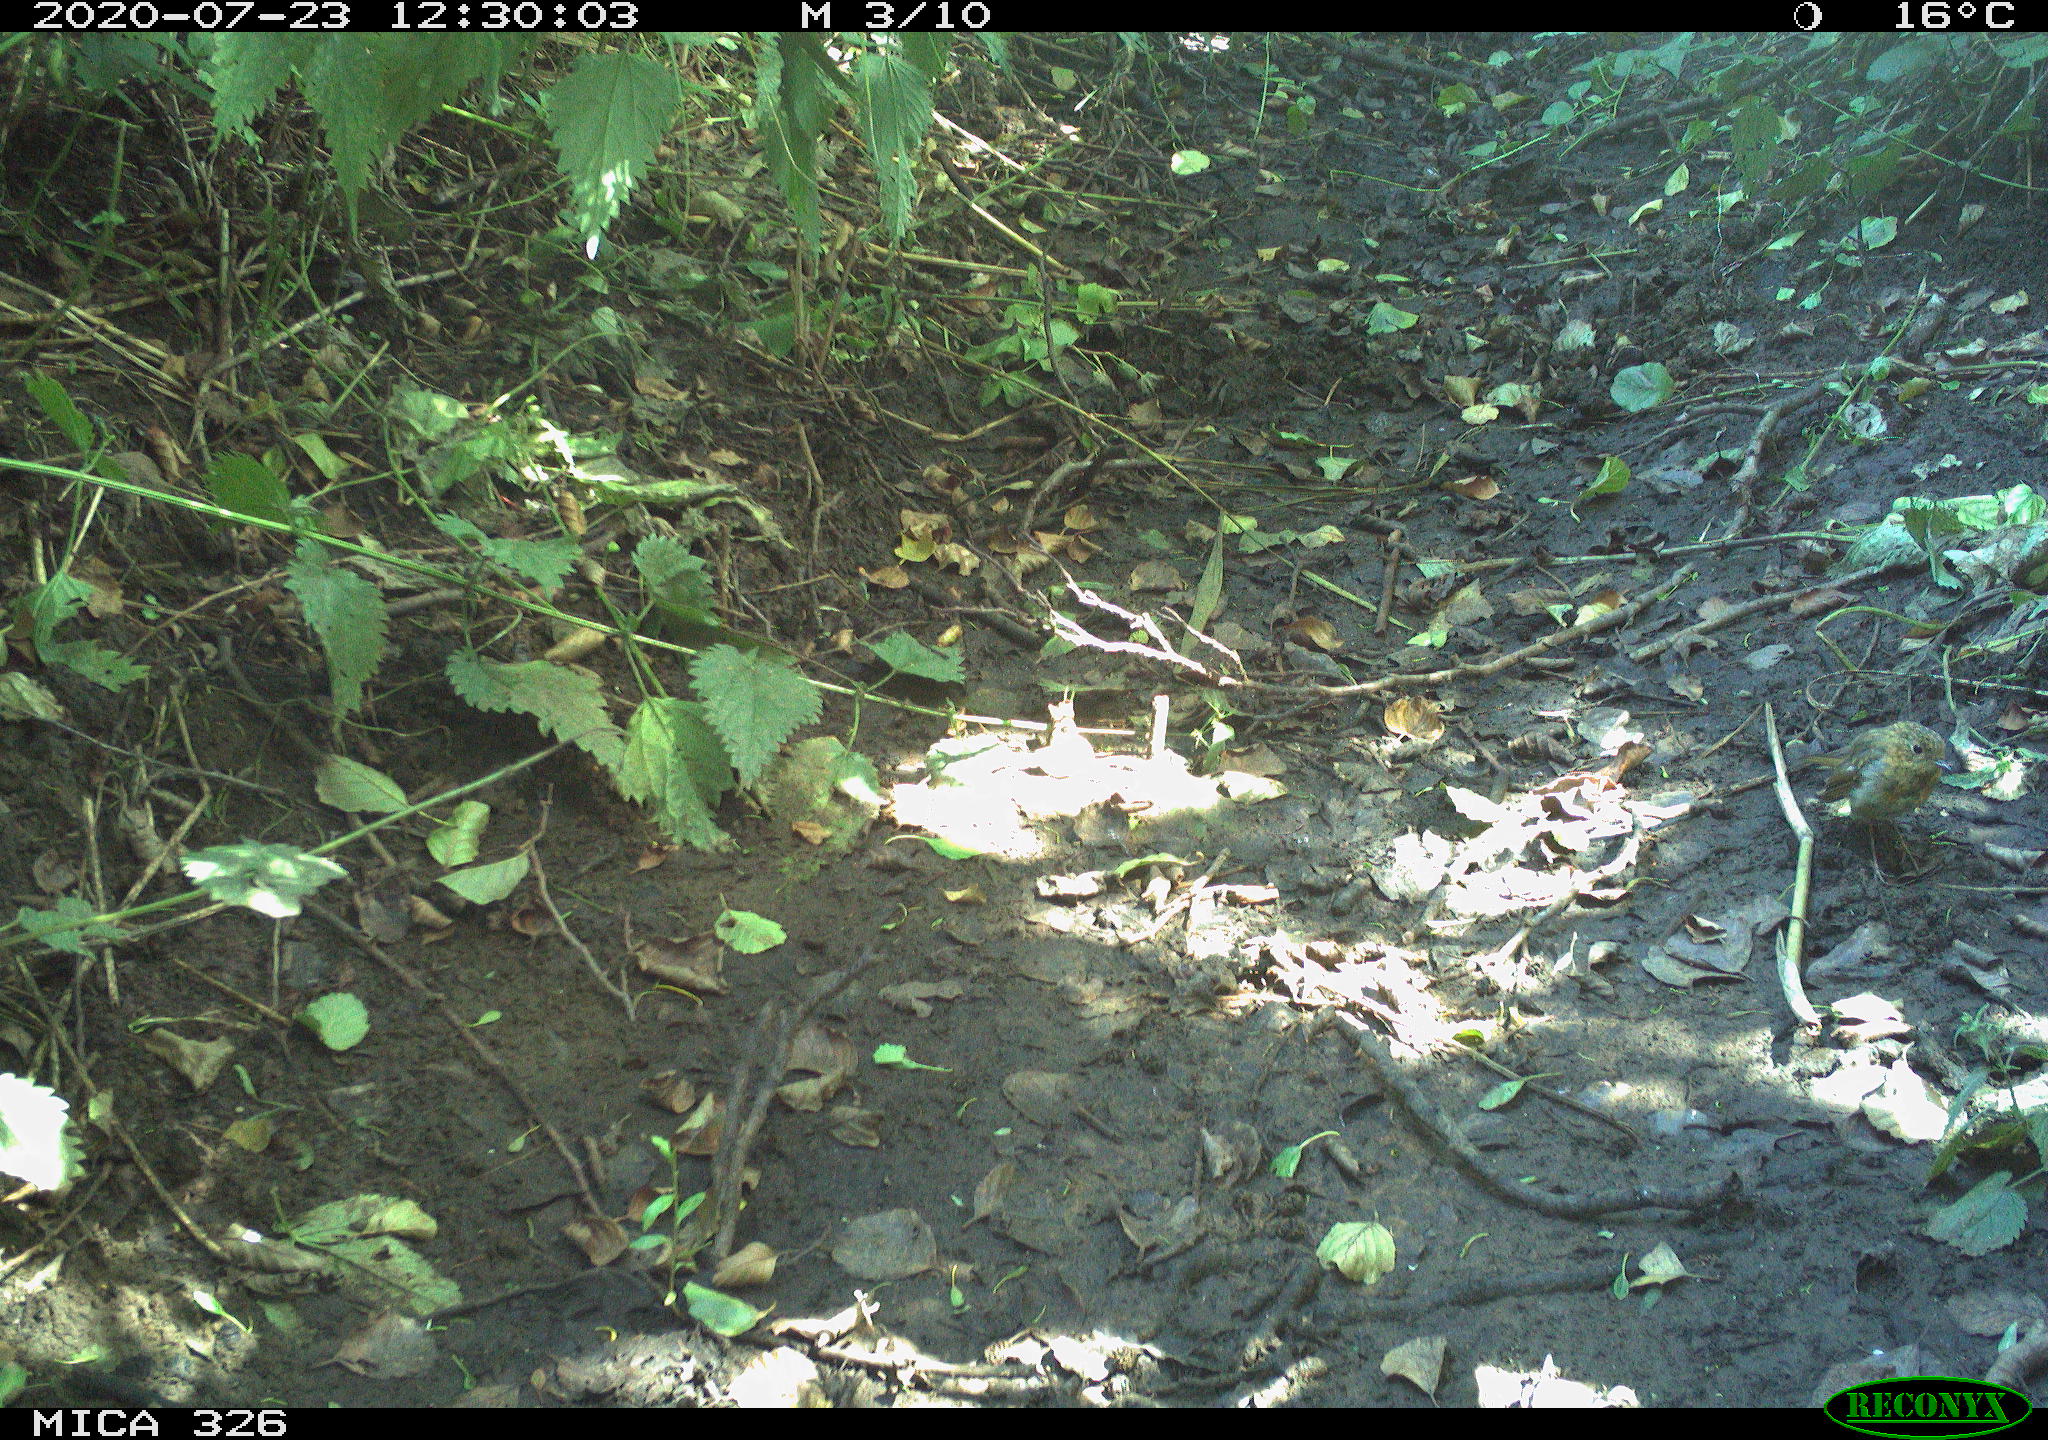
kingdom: Animalia
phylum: Chordata
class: Aves
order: Passeriformes
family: Muscicapidae
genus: Erithacus
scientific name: Erithacus rubecula
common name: European robin
